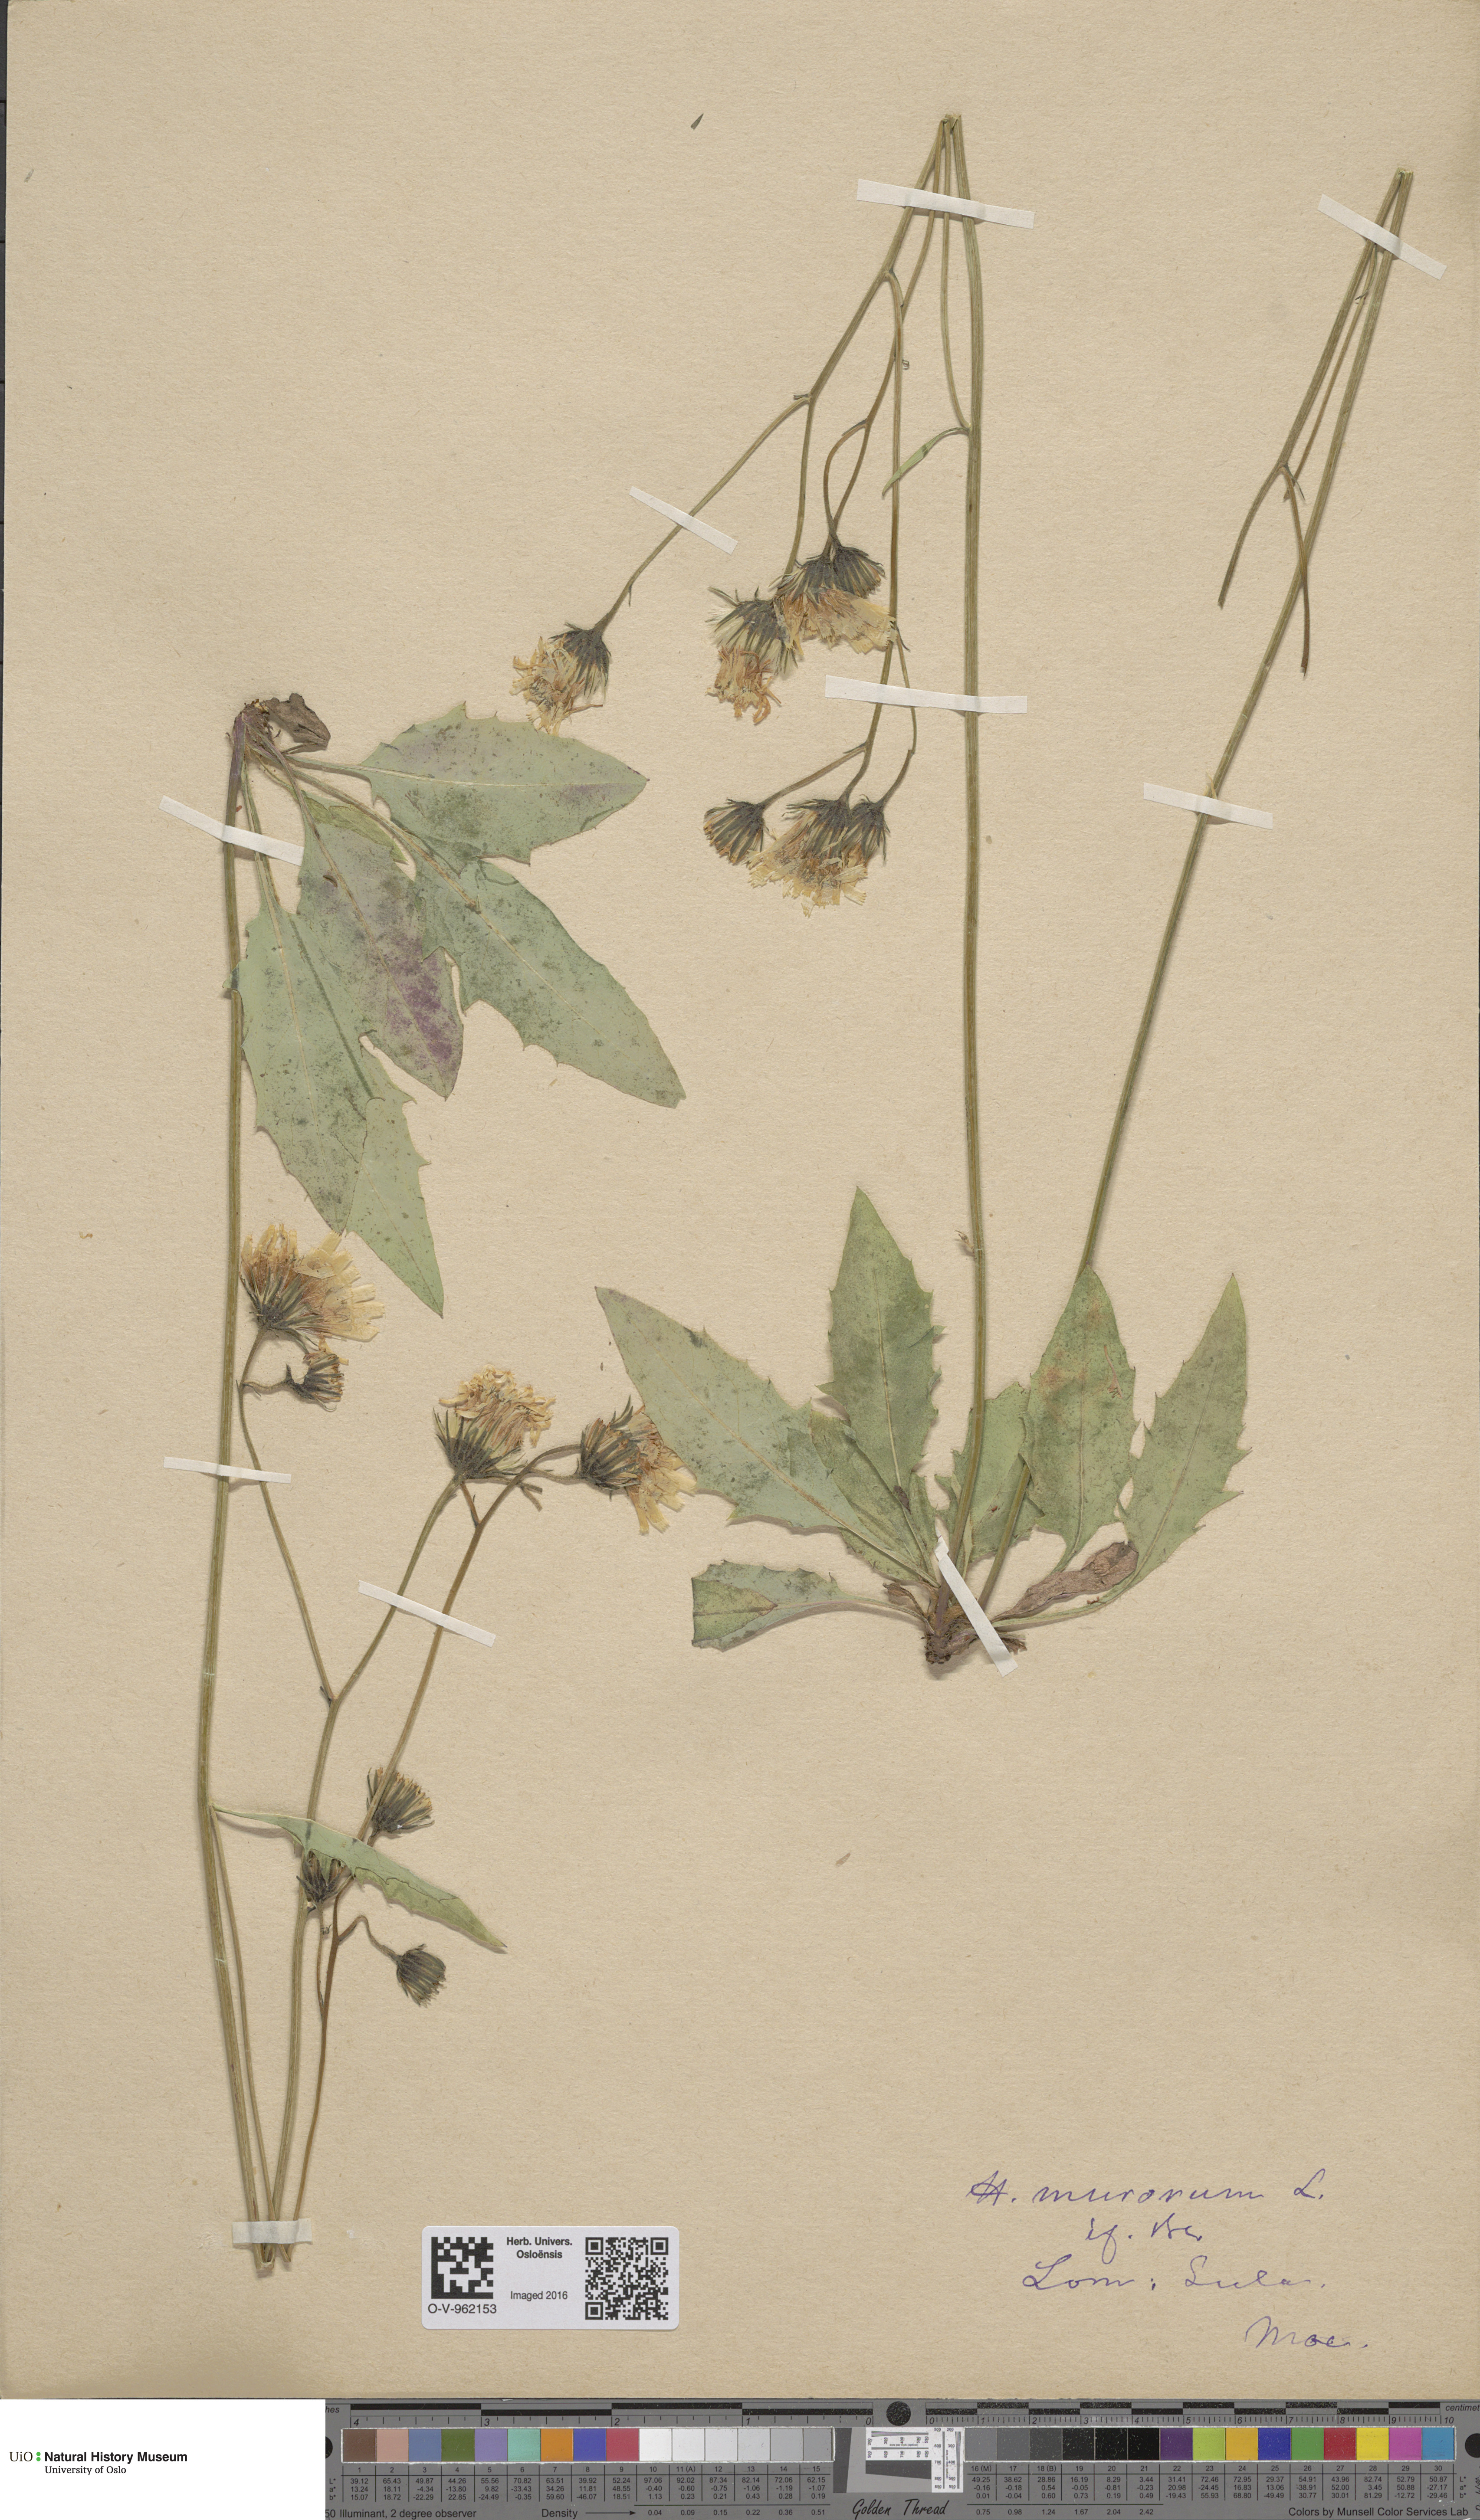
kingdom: Plantae
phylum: Tracheophyta
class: Magnoliopsida
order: Asterales
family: Asteraceae
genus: Hieracium
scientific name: Hieracium murorum
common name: Wall hawkweed
